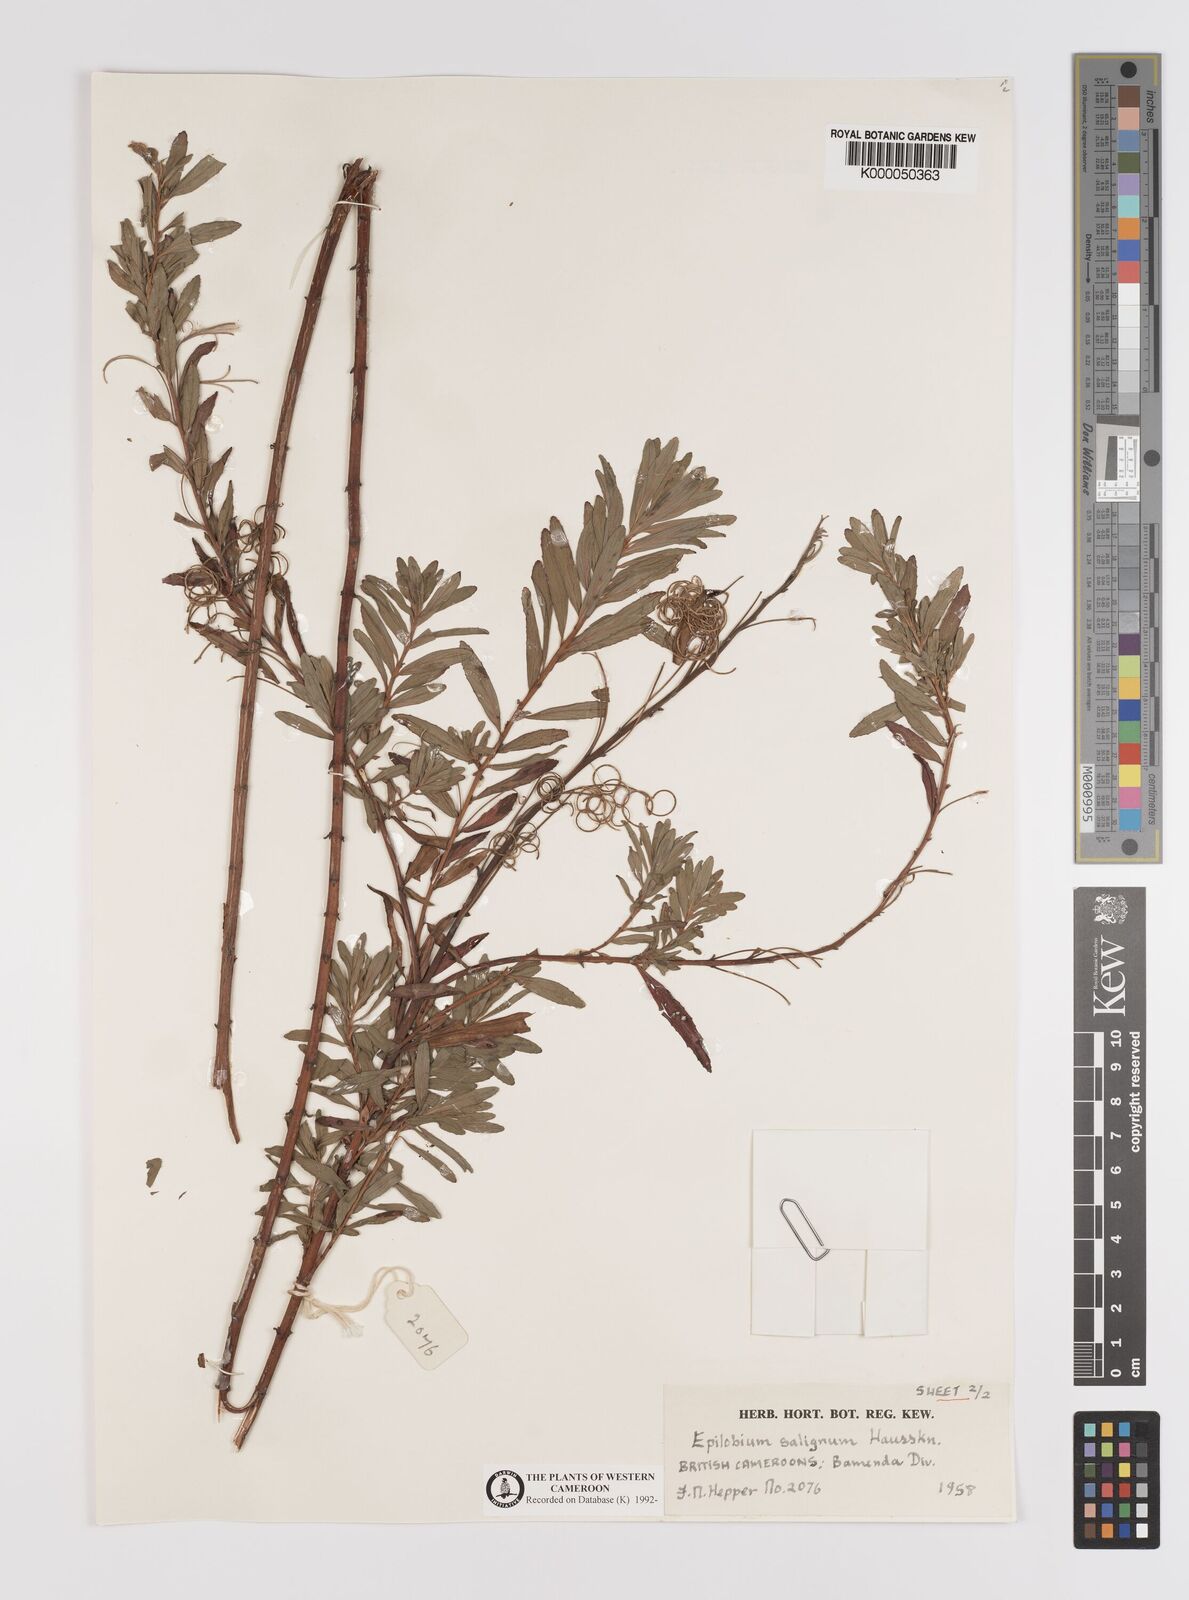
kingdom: Plantae
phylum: Tracheophyta
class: Magnoliopsida
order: Myrtales
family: Onagraceae
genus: Epilobium
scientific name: Epilobium salignum
